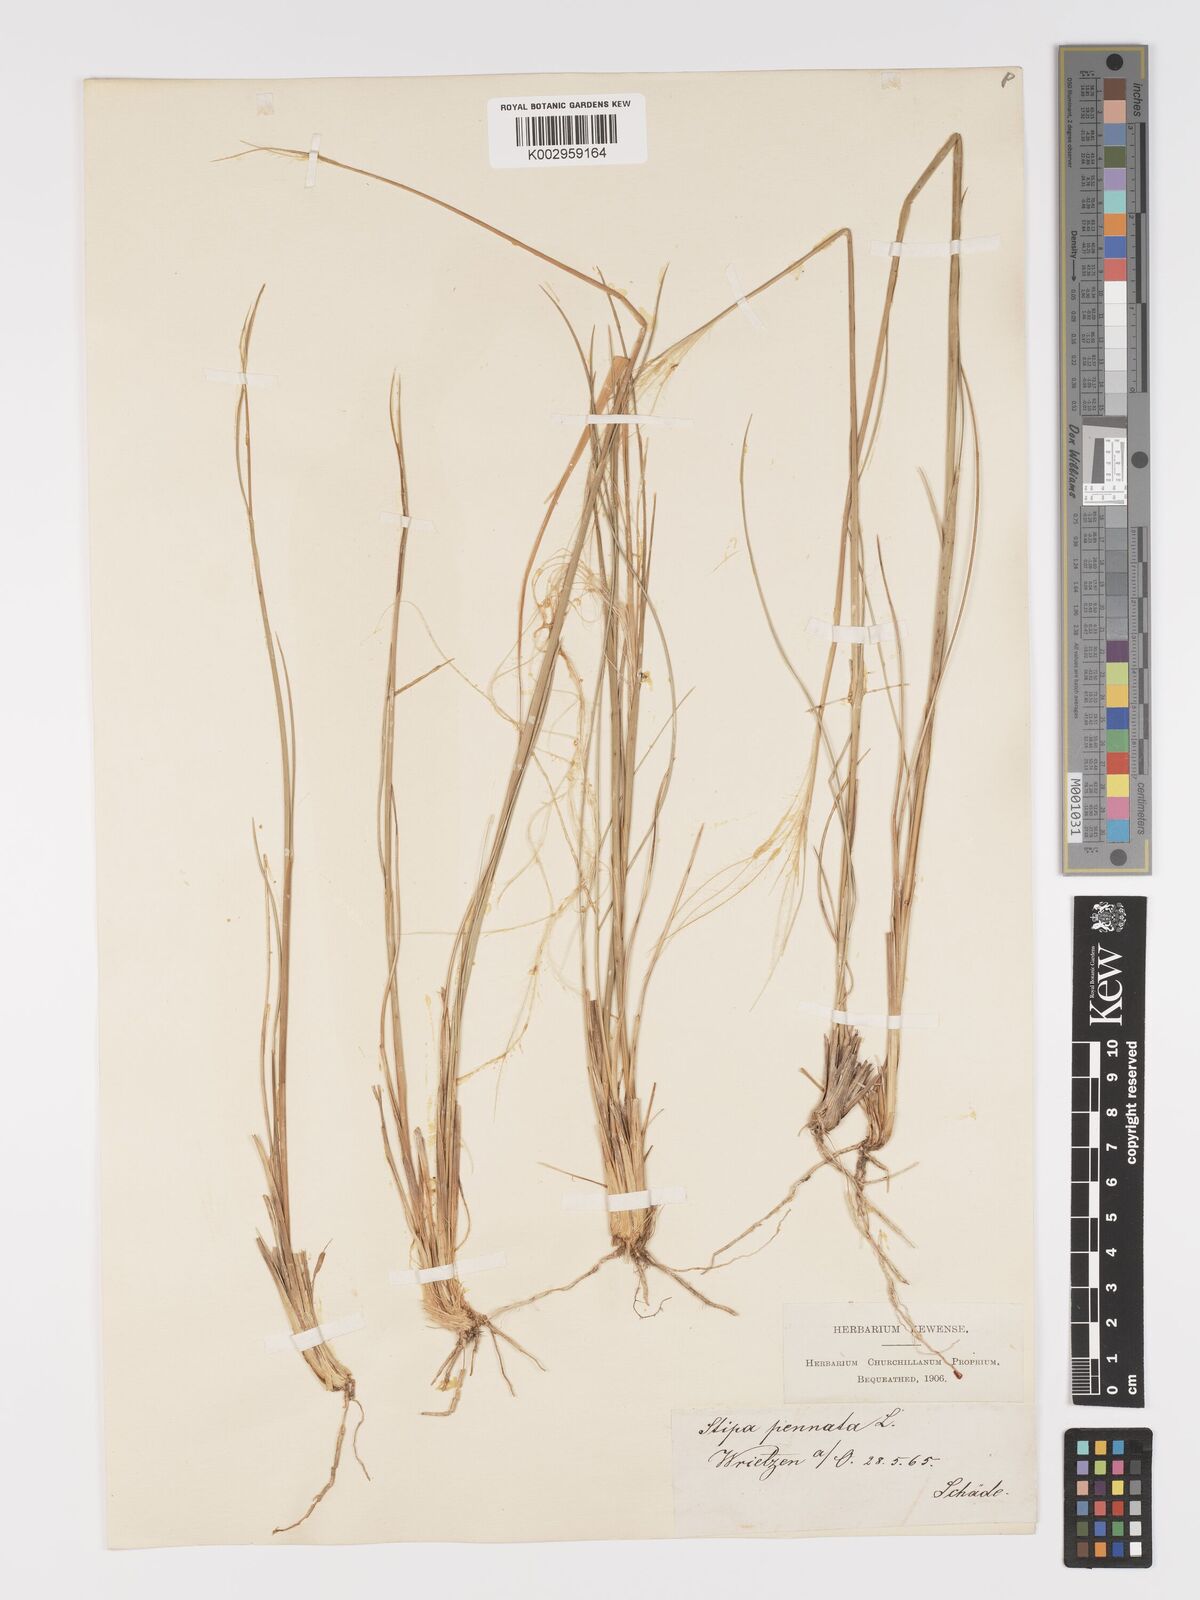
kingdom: Plantae
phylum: Tracheophyta
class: Liliopsida
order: Poales
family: Poaceae
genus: Stipa
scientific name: Stipa pennata
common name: European feather grass
